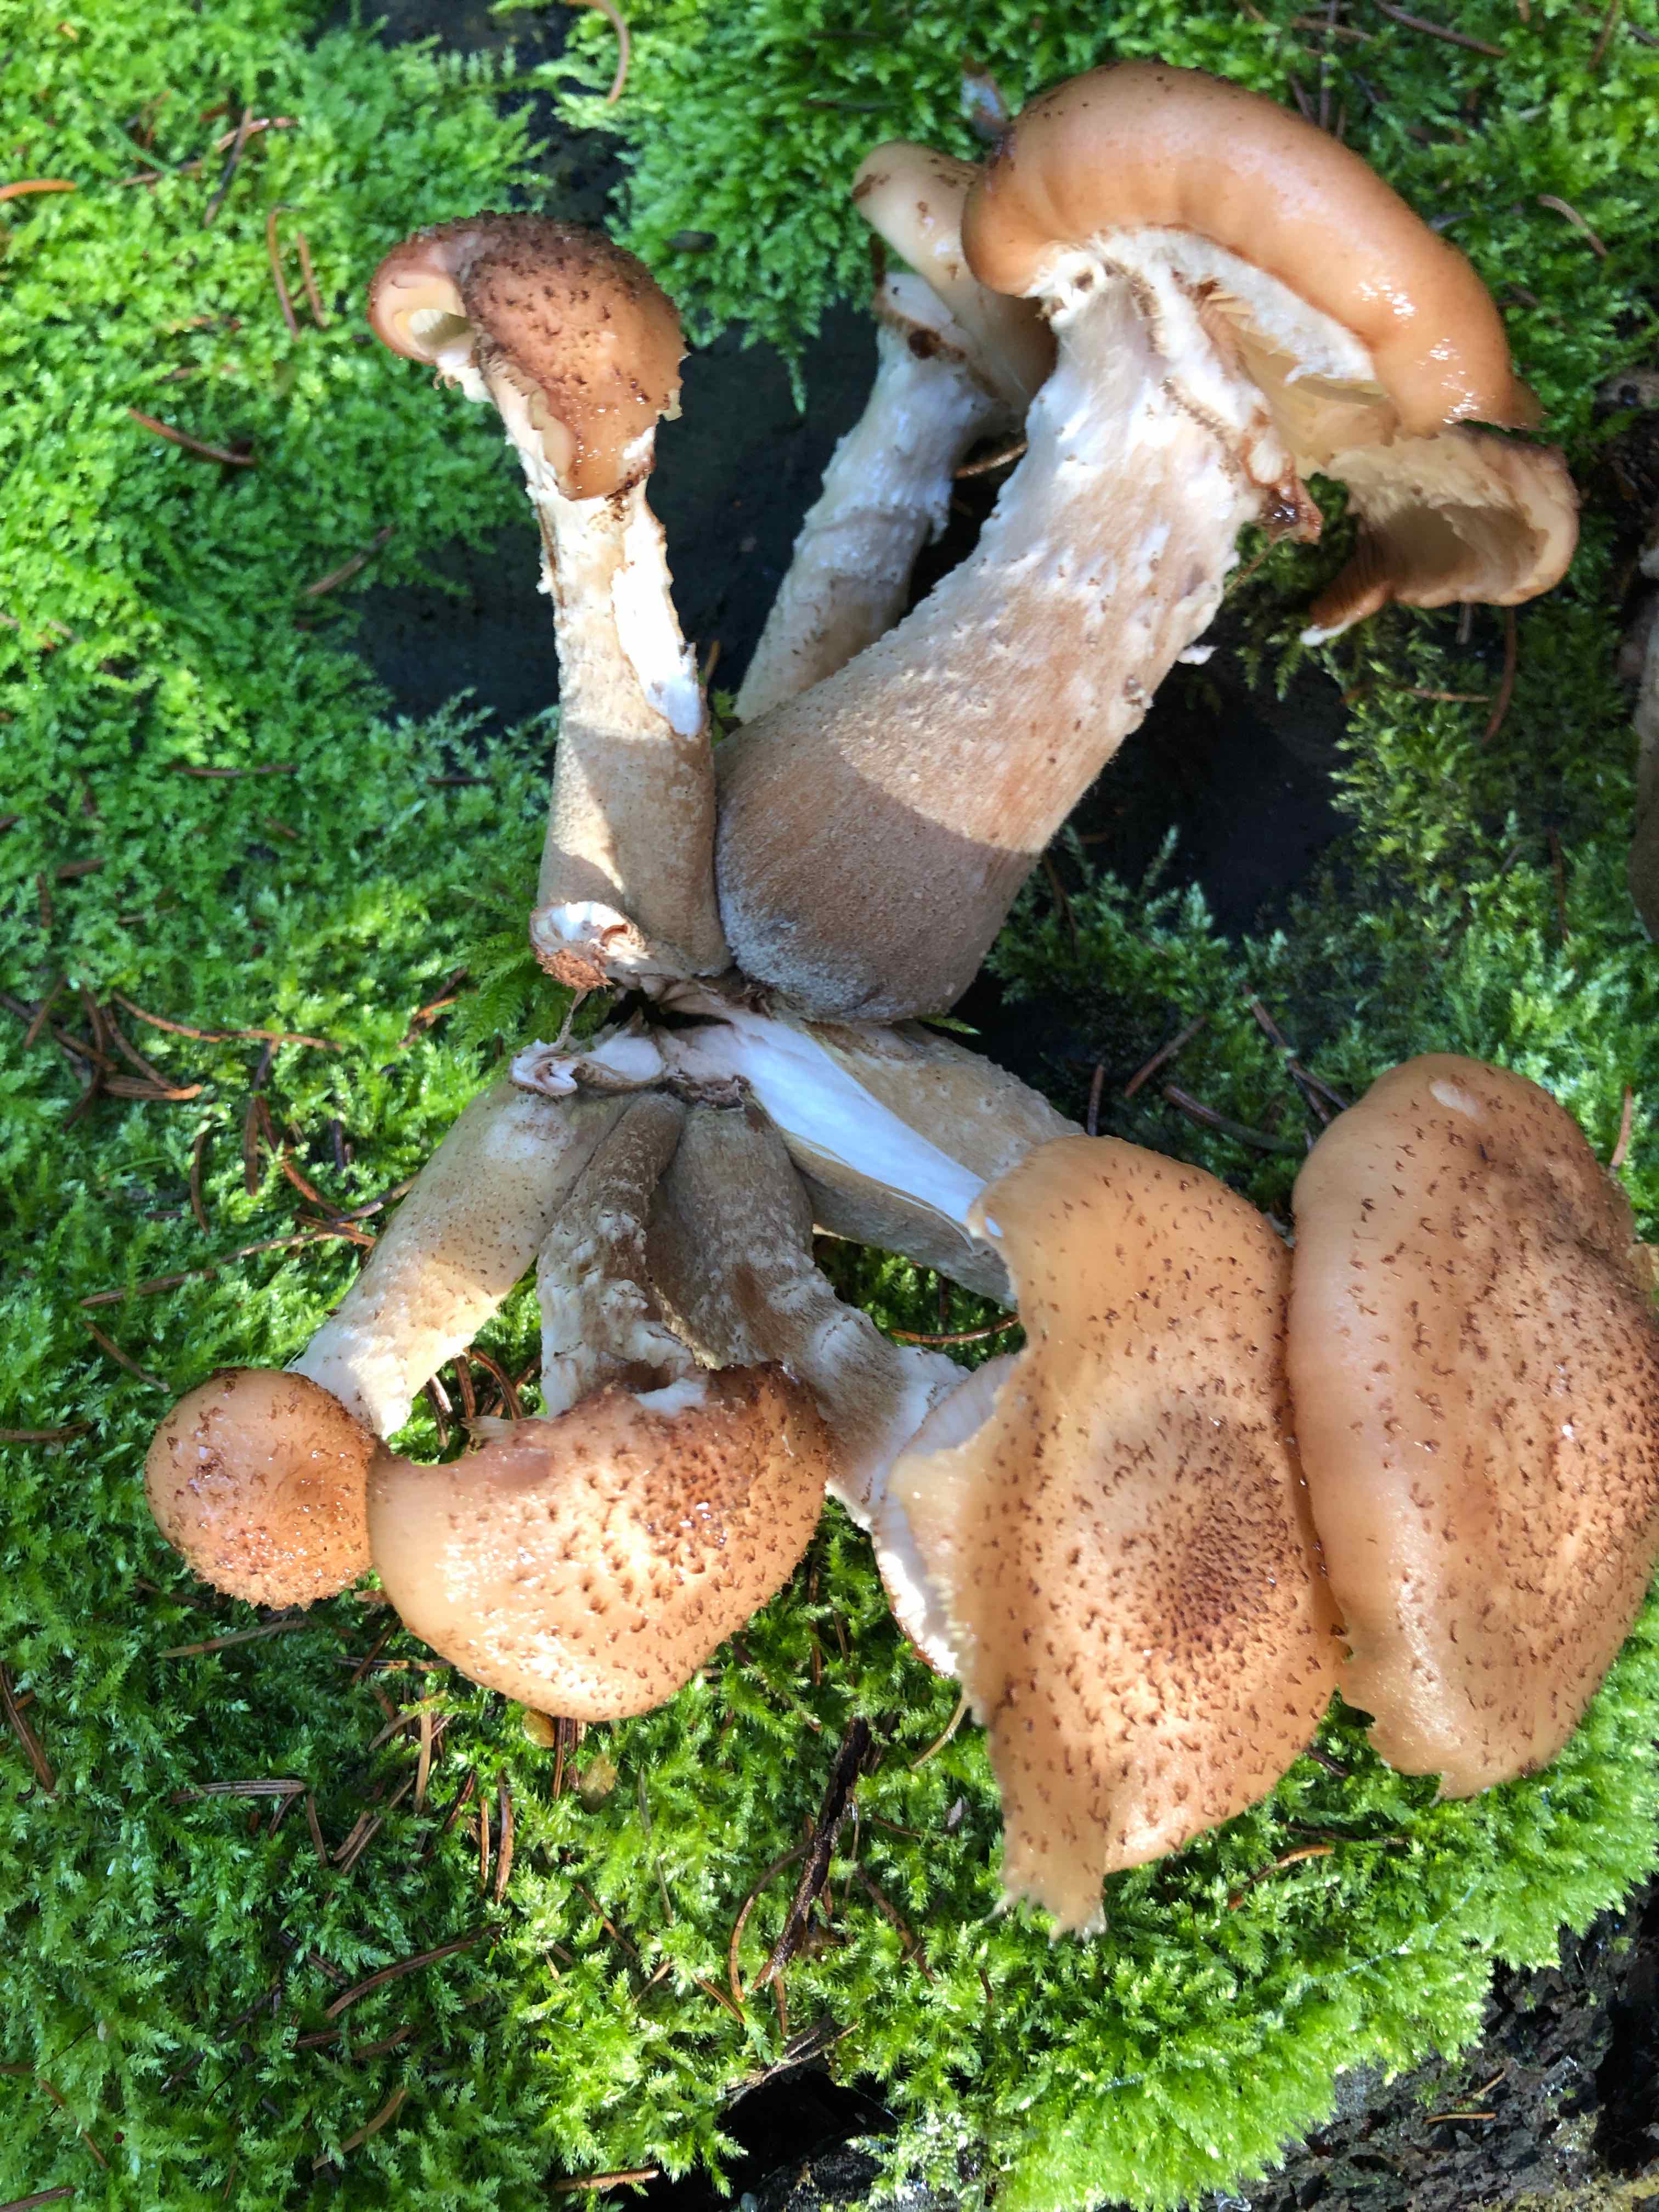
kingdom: Fungi
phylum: Basidiomycota
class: Agaricomycetes
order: Agaricales
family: Physalacriaceae
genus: Armillaria
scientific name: Armillaria lutea
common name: køllestokket honningsvamp
